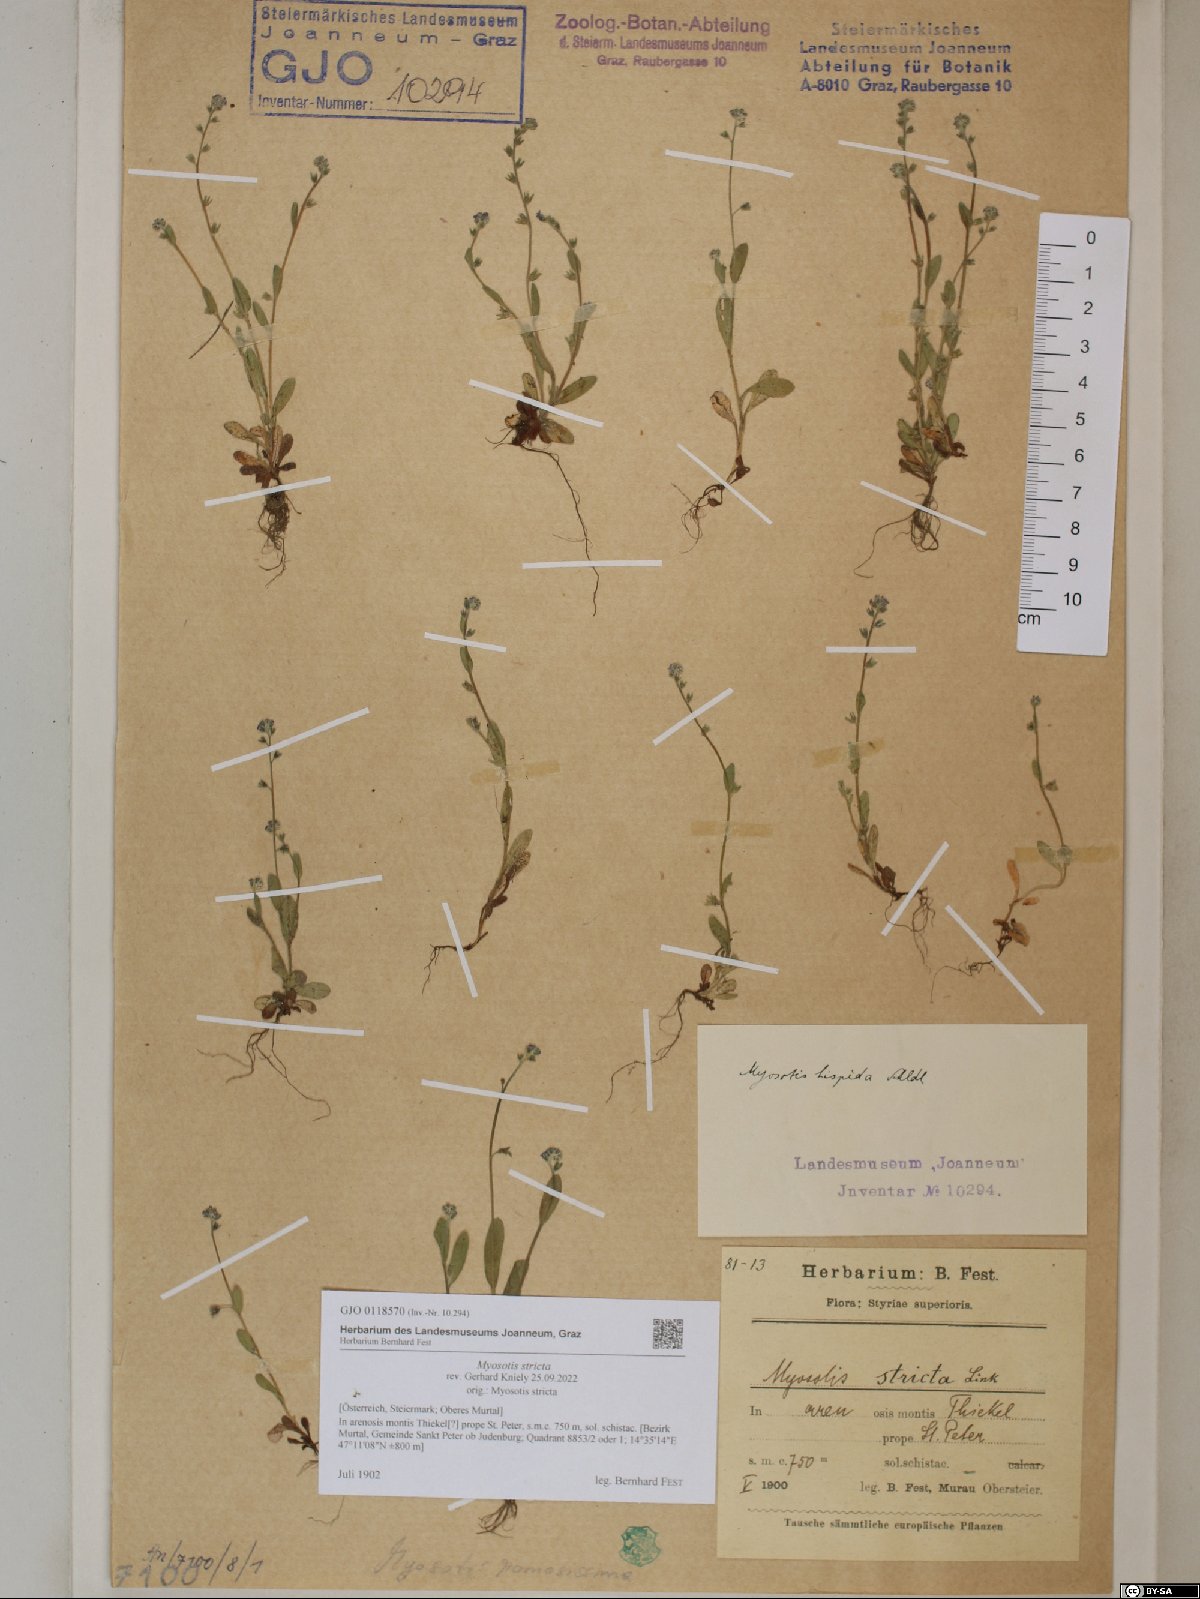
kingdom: Plantae
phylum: Tracheophyta
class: Magnoliopsida
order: Boraginales
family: Boraginaceae
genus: Myosotis
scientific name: Myosotis stricta
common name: Strict forget-me-not
